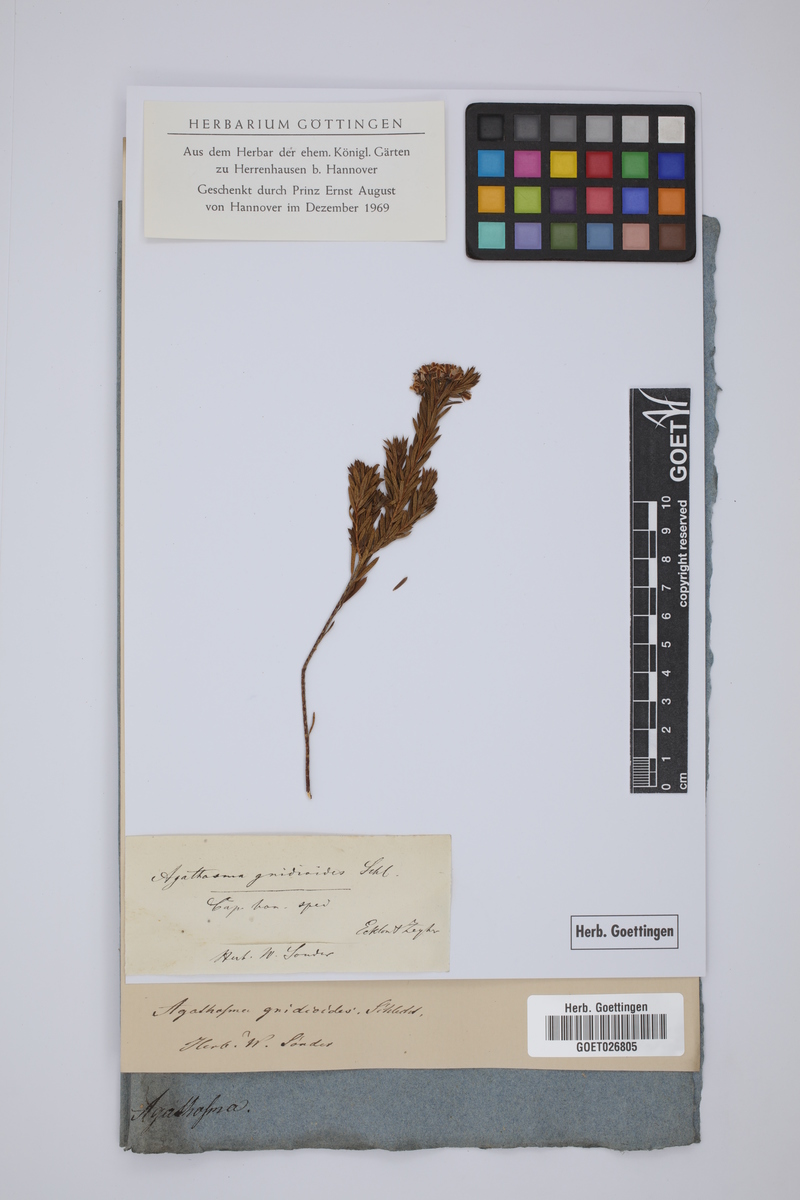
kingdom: Plantae
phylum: Tracheophyta
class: Magnoliopsida
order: Sapindales
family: Rutaceae
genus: Agathosma
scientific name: Agathosma puberula
